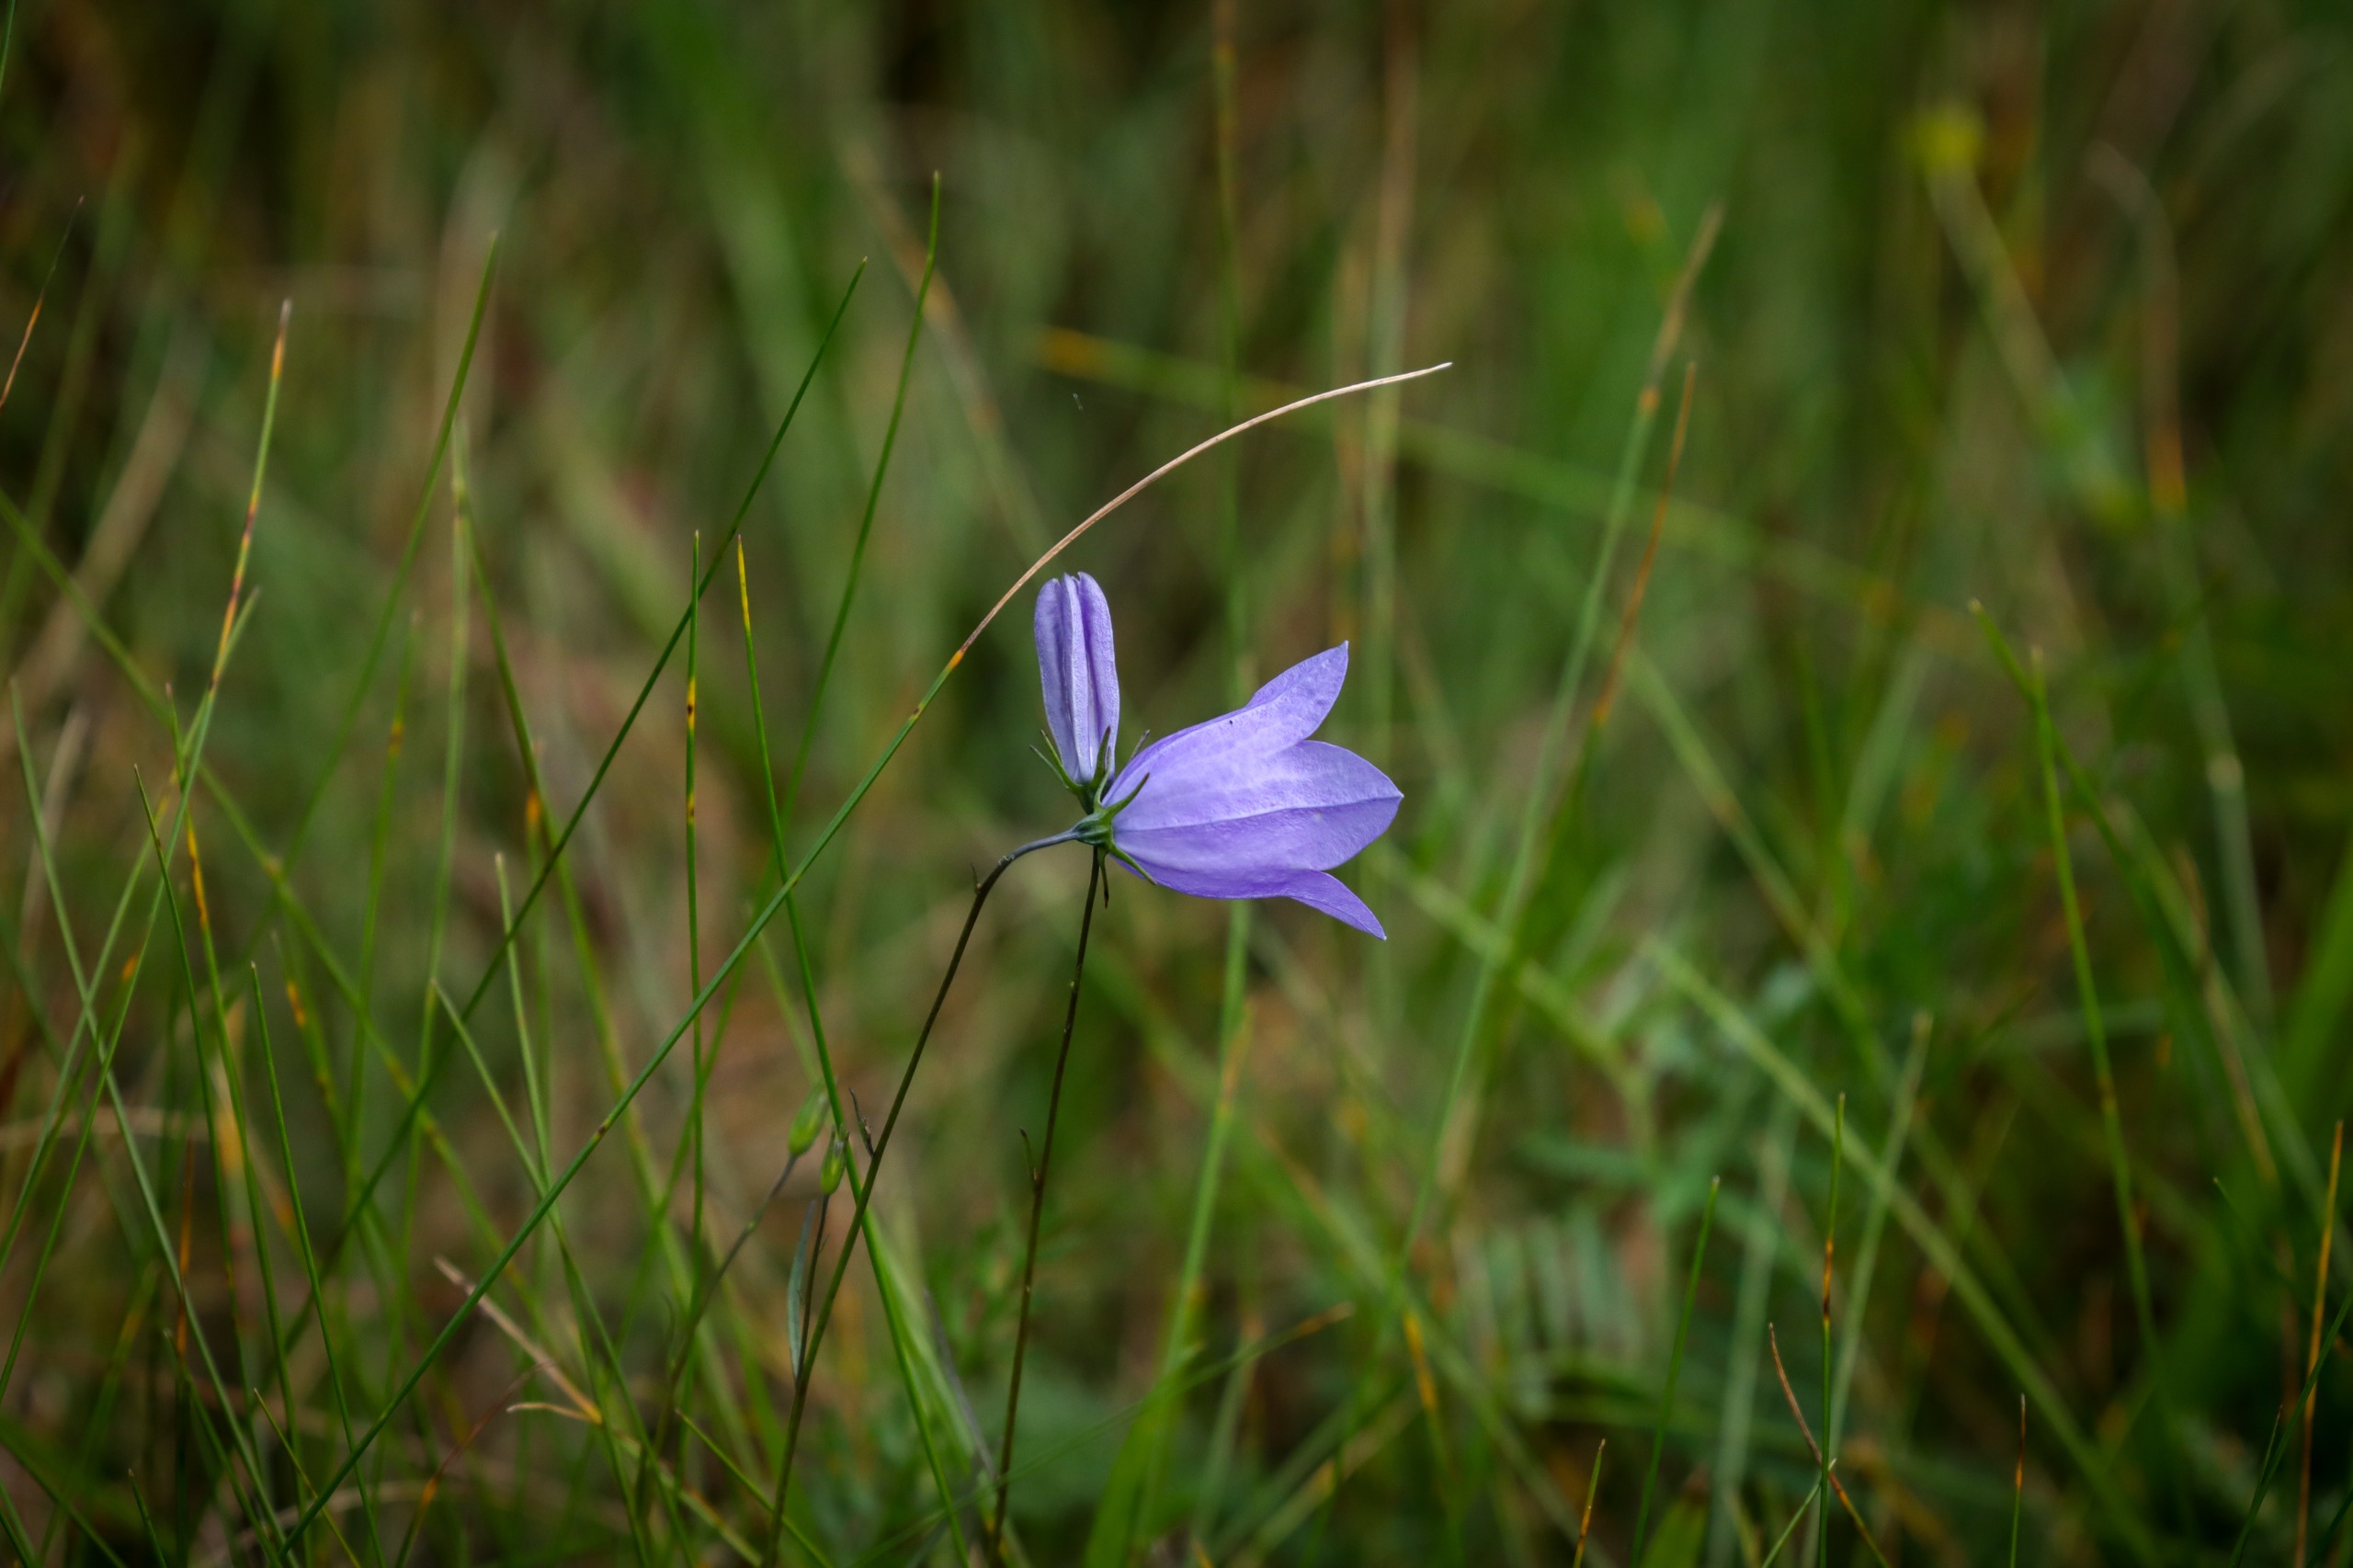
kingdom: Plantae
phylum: Tracheophyta
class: Magnoliopsida
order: Asterales
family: Campanulaceae
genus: Campanula
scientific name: Campanula rotundifolia
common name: Liden klokke
